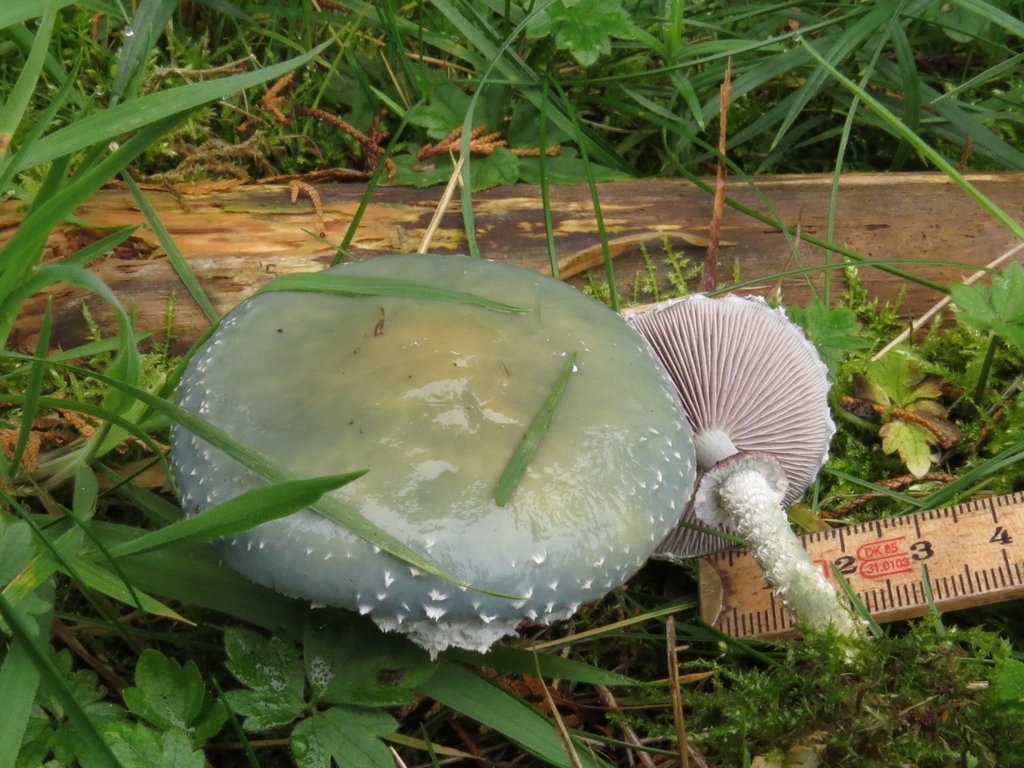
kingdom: Fungi
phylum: Basidiomycota
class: Agaricomycetes
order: Agaricales
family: Strophariaceae
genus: Stropharia
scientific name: Stropharia aeruginosa
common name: spanskgrøn bredblad
